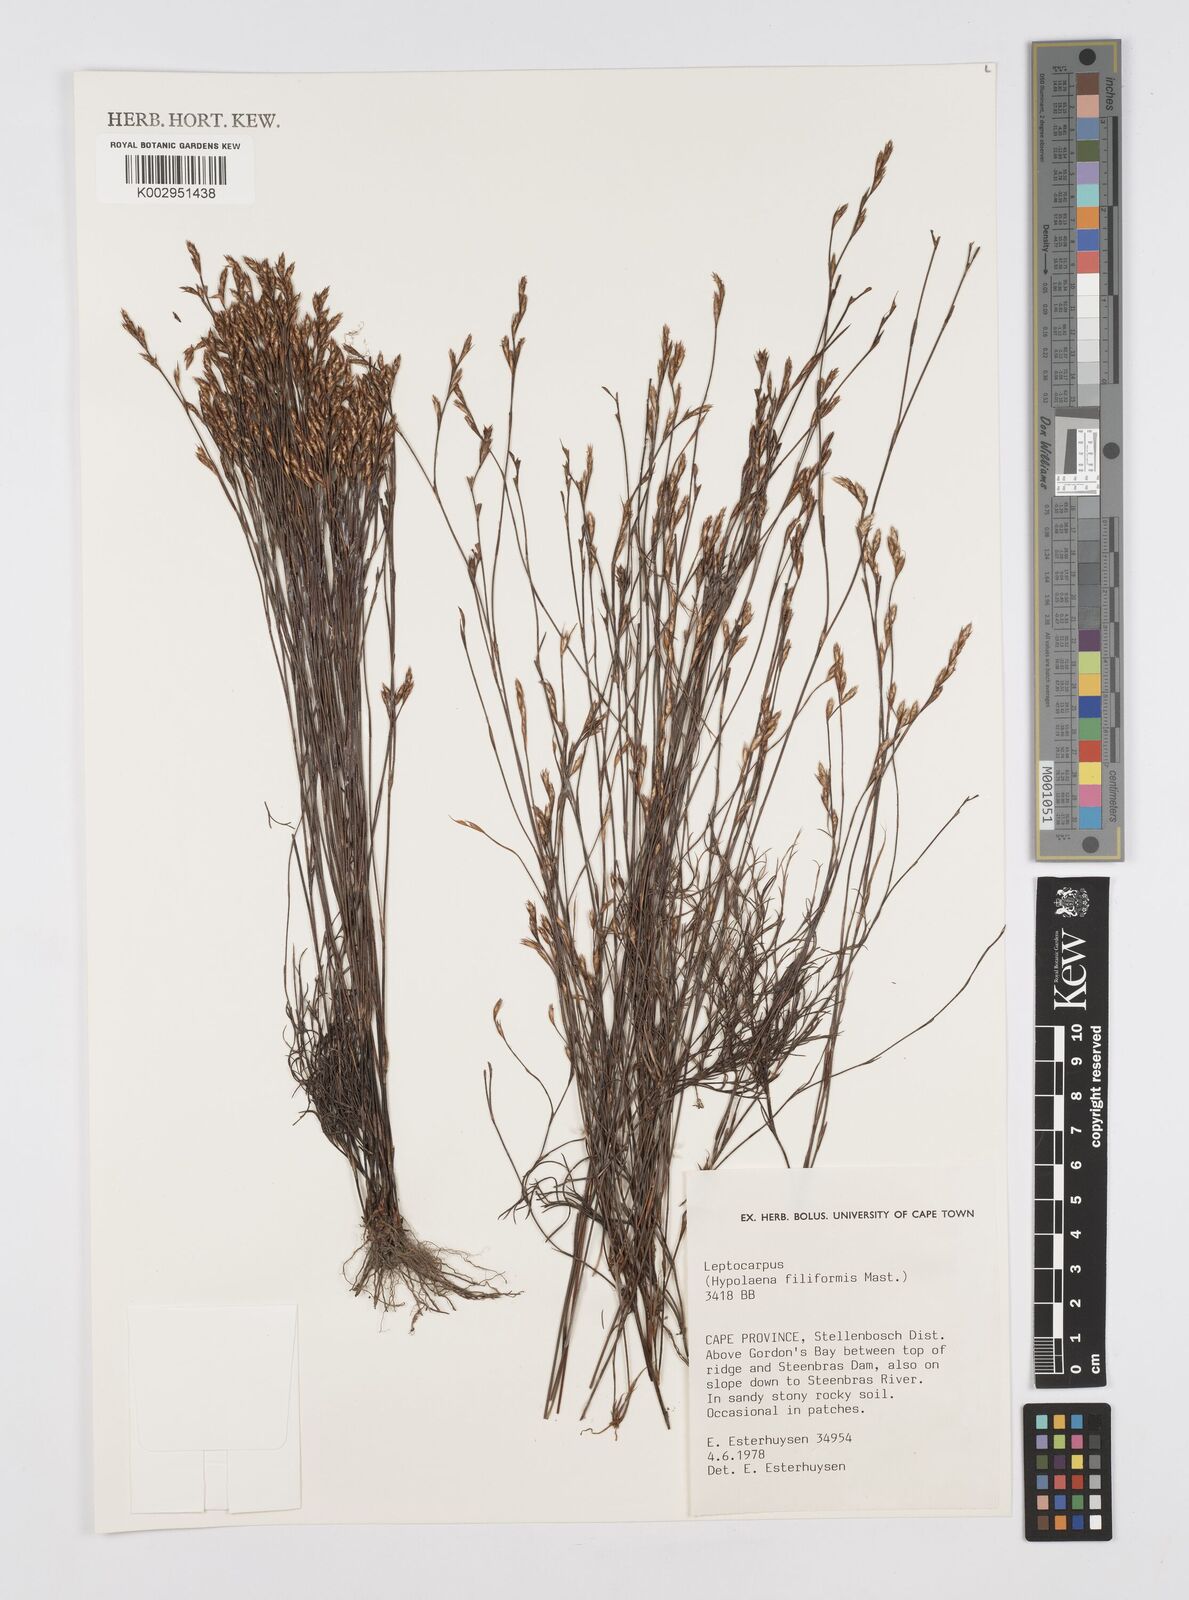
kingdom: Plantae
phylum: Tracheophyta
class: Liliopsida
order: Poales
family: Restionaceae
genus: Restio
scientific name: Restio pillansii
